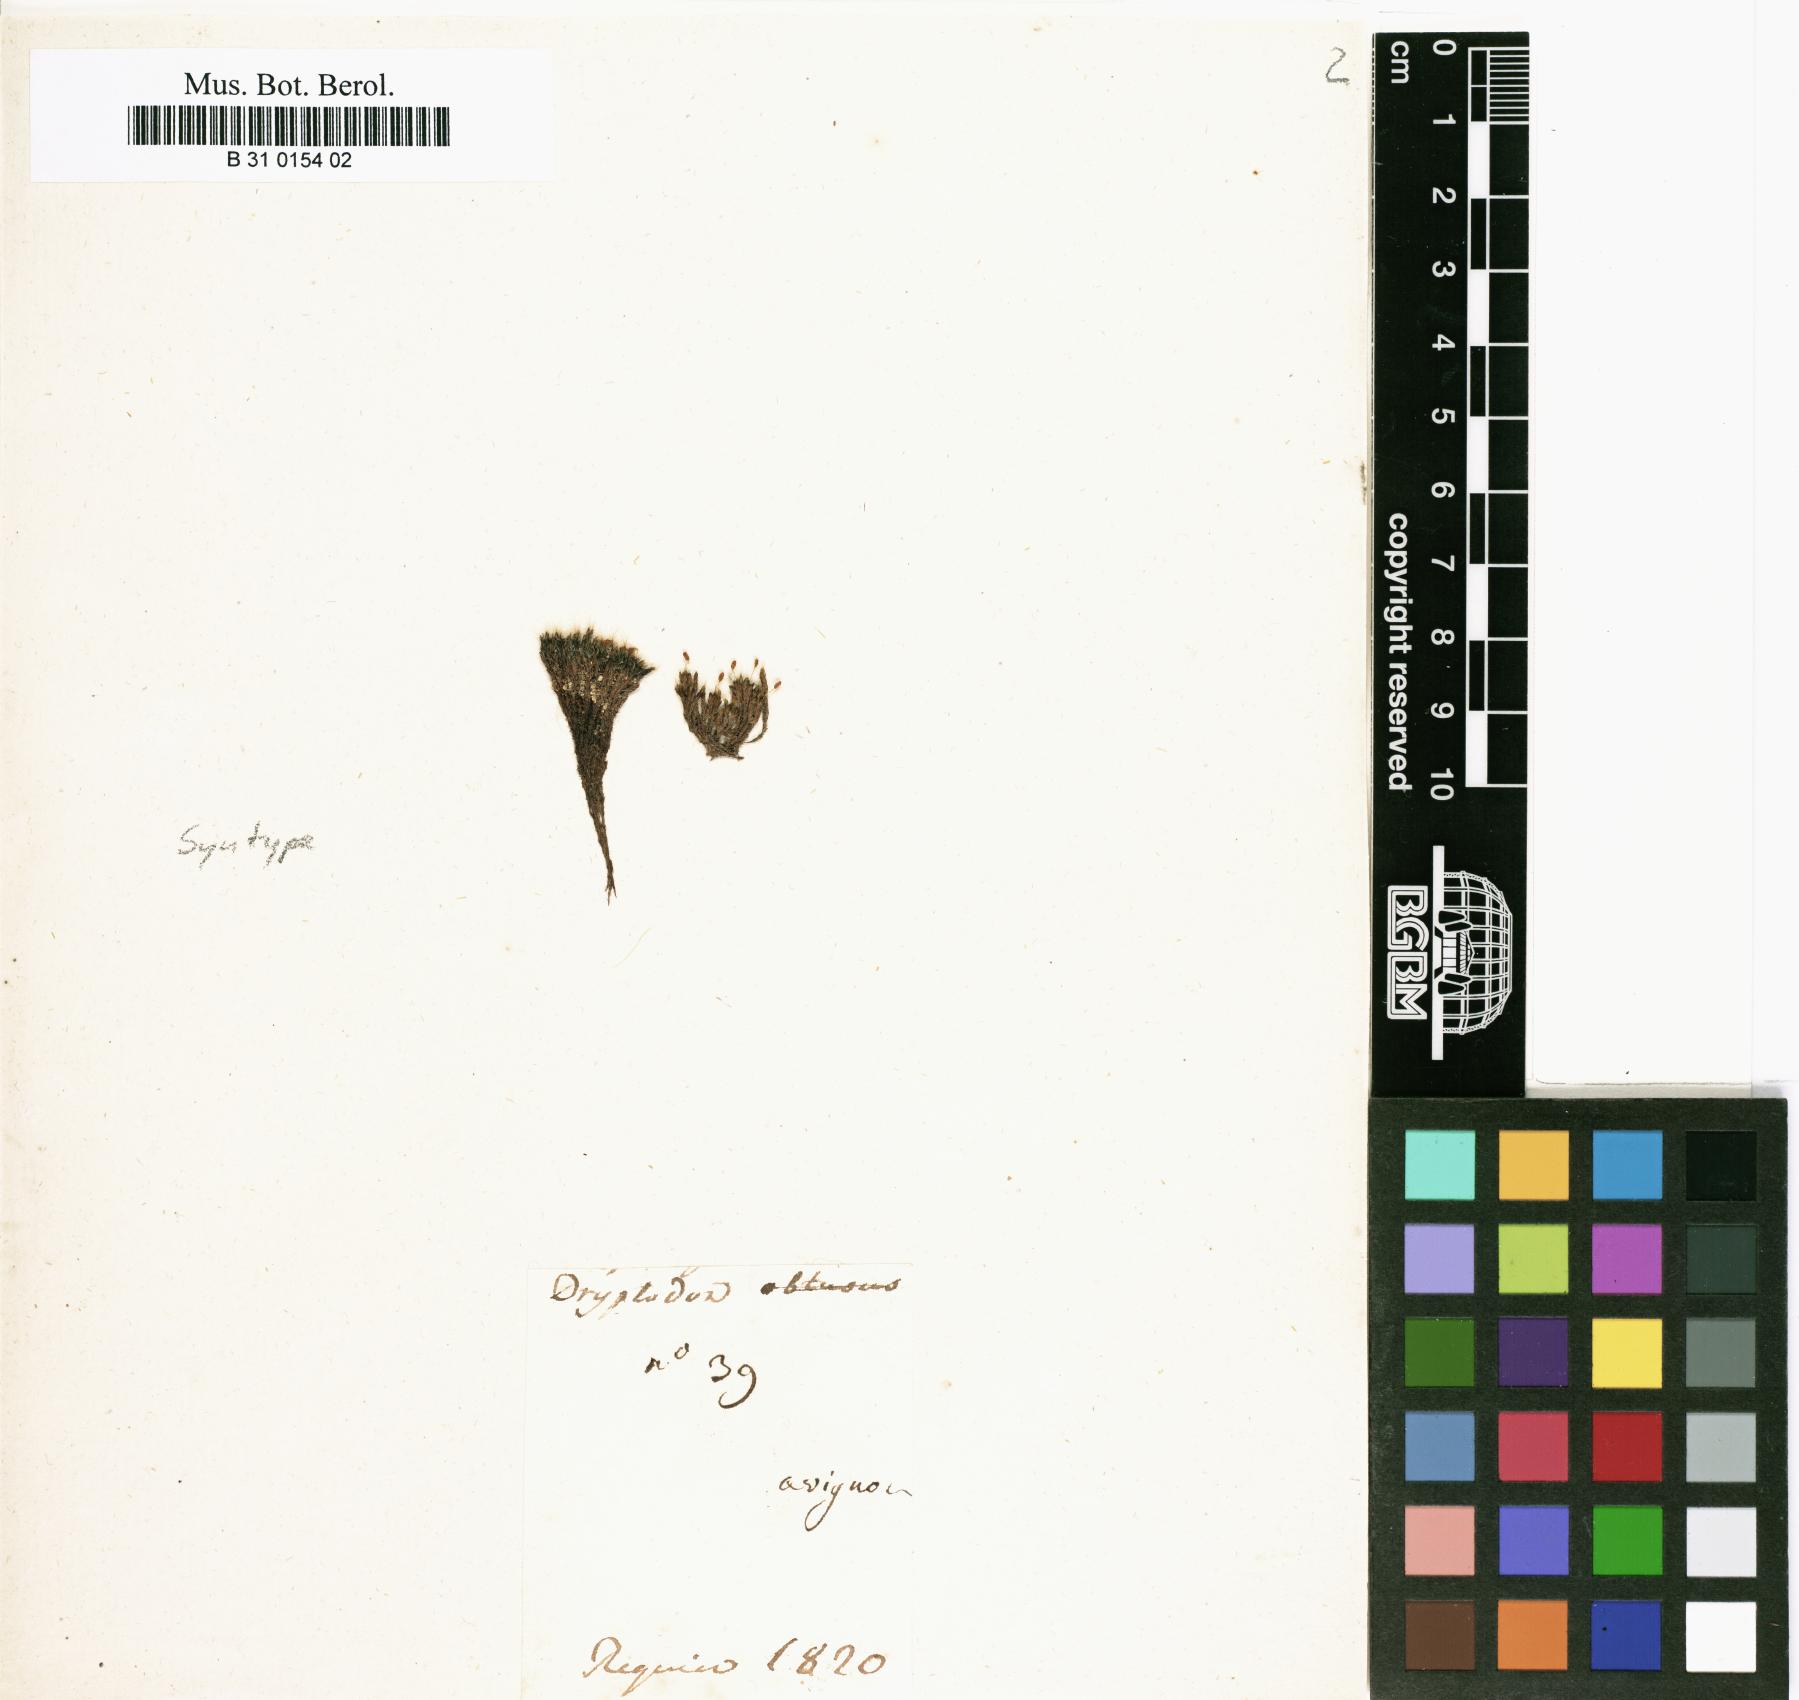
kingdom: Plantae
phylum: Bryophyta
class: Bryopsida
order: Grimmiales
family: Grimmiaceae
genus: Grimmia
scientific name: Grimmia pulvinata
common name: Grey-cushioned grimmia
